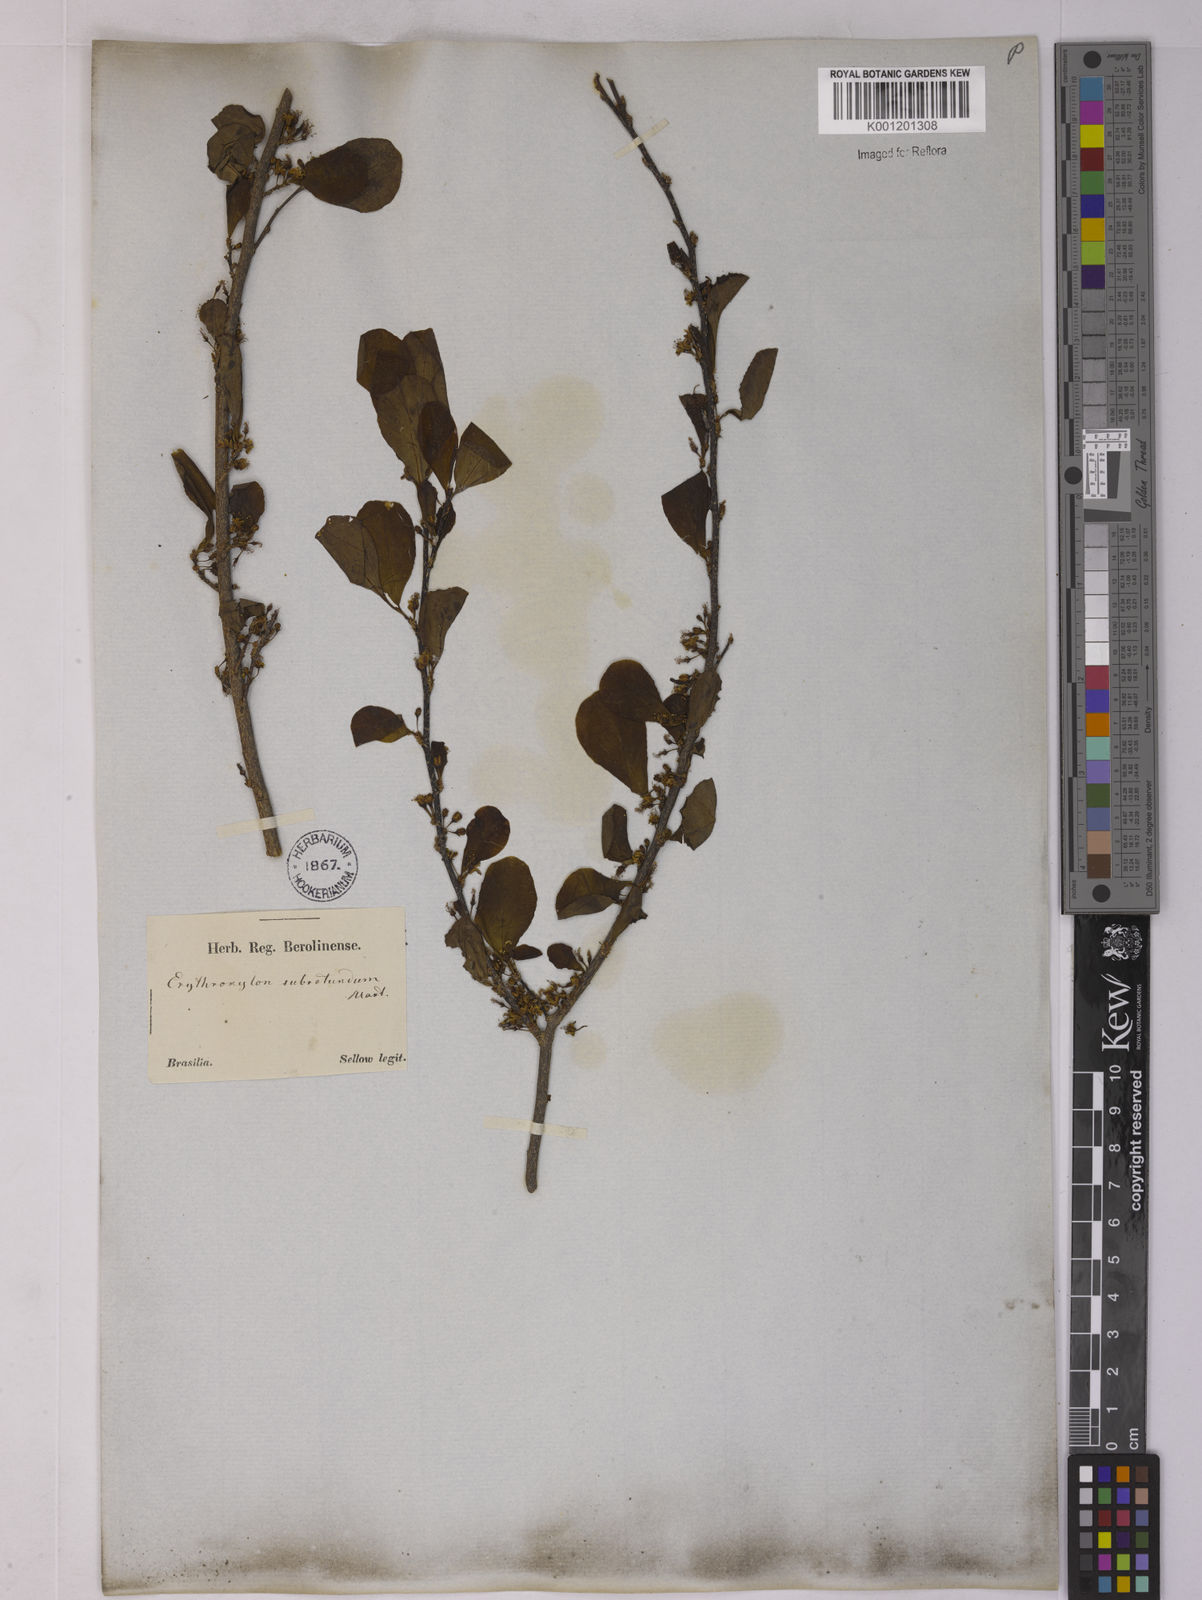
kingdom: Plantae
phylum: Tracheophyta
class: Magnoliopsida
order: Malpighiales
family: Erythroxylaceae
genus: Erythroxylum
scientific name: Erythroxylum subrotundum
